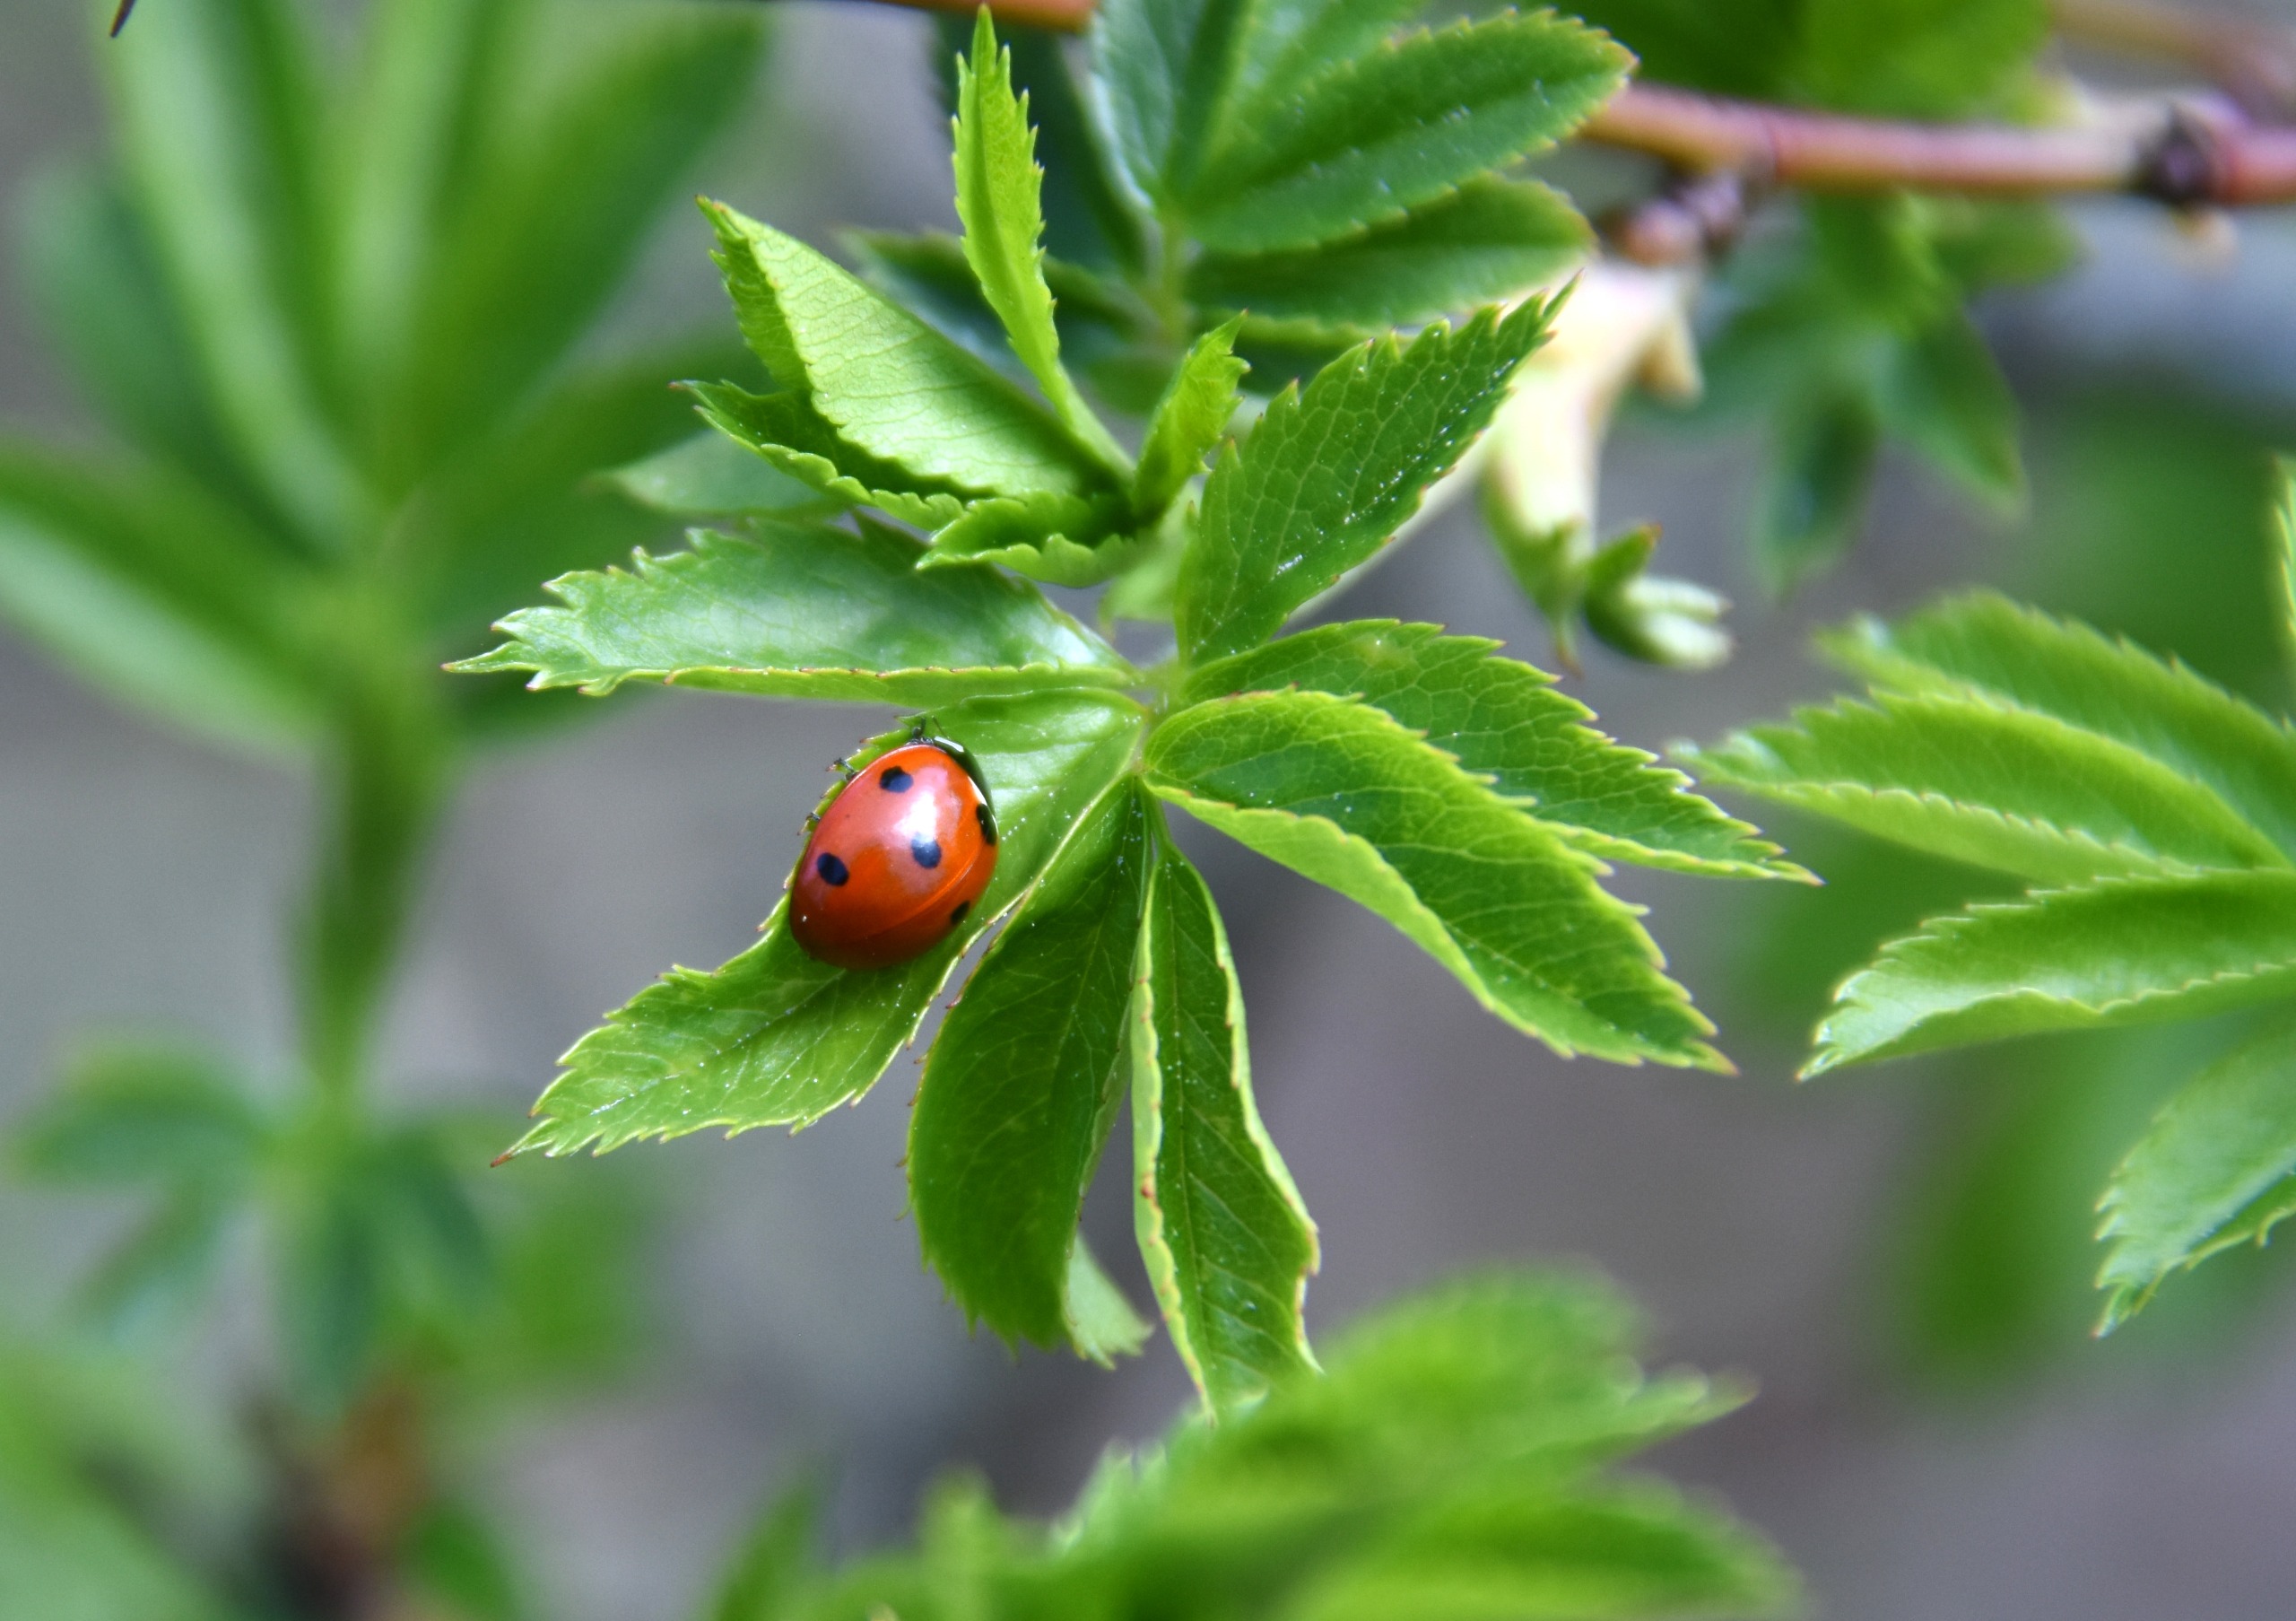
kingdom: Animalia
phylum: Arthropoda
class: Insecta
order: Coleoptera
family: Coccinellidae
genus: Coccinella
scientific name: Coccinella septempunctata
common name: Syvplettet mariehøne
